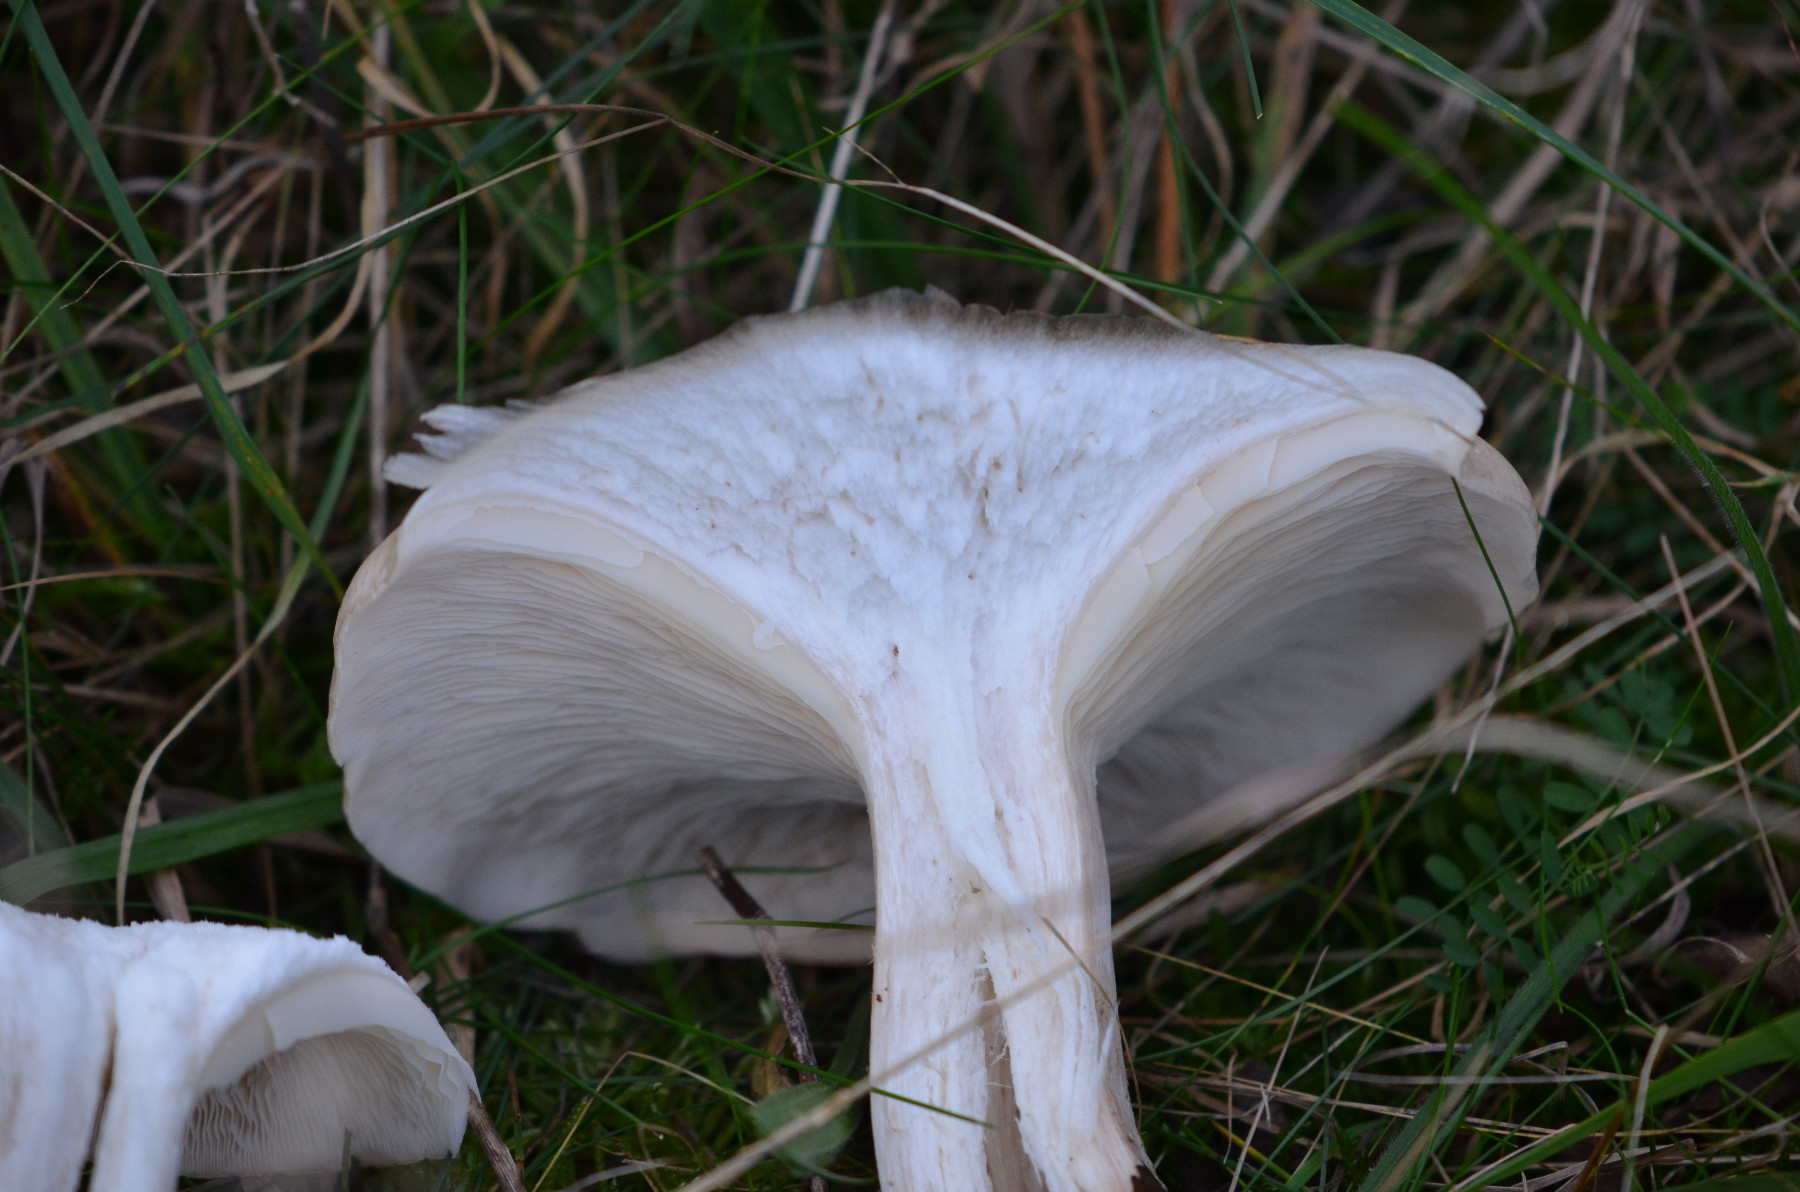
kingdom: Fungi
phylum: Basidiomycota
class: Agaricomycetes
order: Agaricales
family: Tricholomataceae
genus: Clitocybe
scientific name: Clitocybe nebularis
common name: tåge-tragthat
